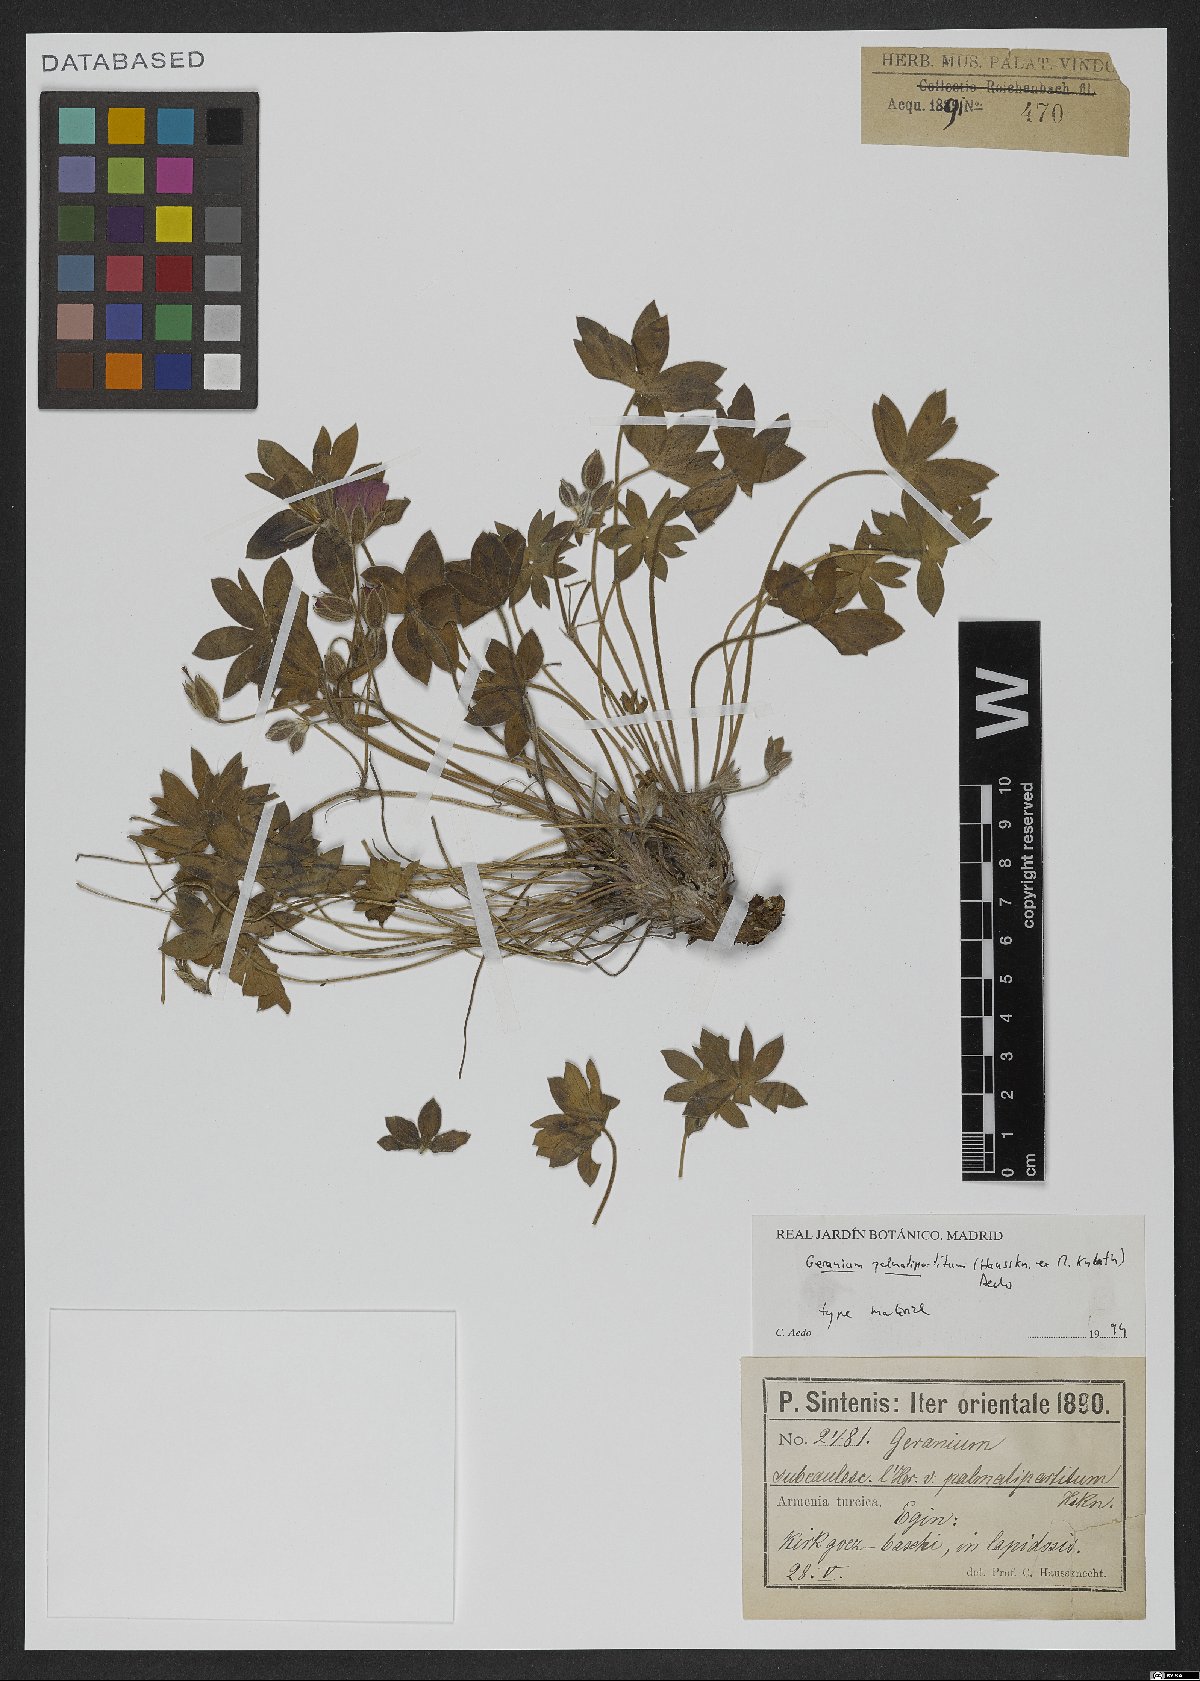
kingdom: Plantae
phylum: Tracheophyta
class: Magnoliopsida
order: Geraniales
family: Geraniaceae
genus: Geranium
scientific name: Geranium palmatipartitum
